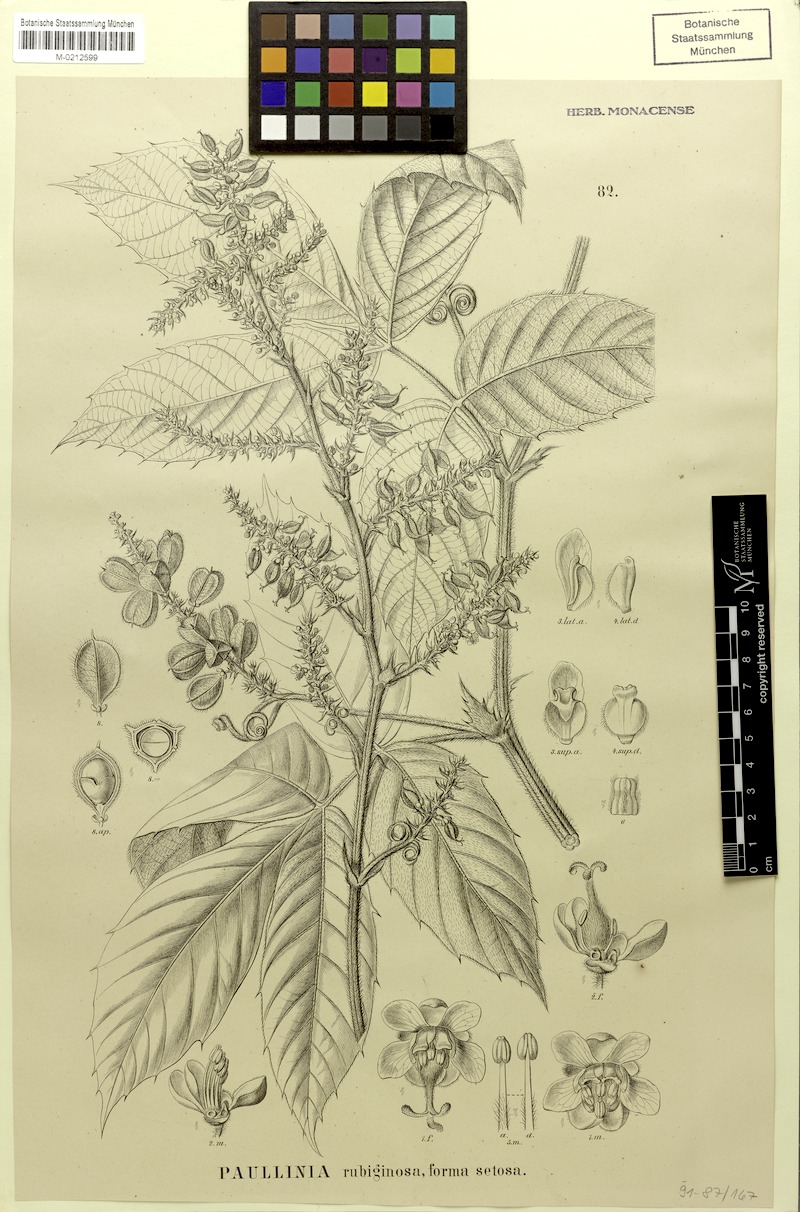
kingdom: Plantae
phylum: Tracheophyta
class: Magnoliopsida
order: Sapindales
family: Sapindaceae
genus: Paullinia
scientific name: Paullinia rubiginosa
